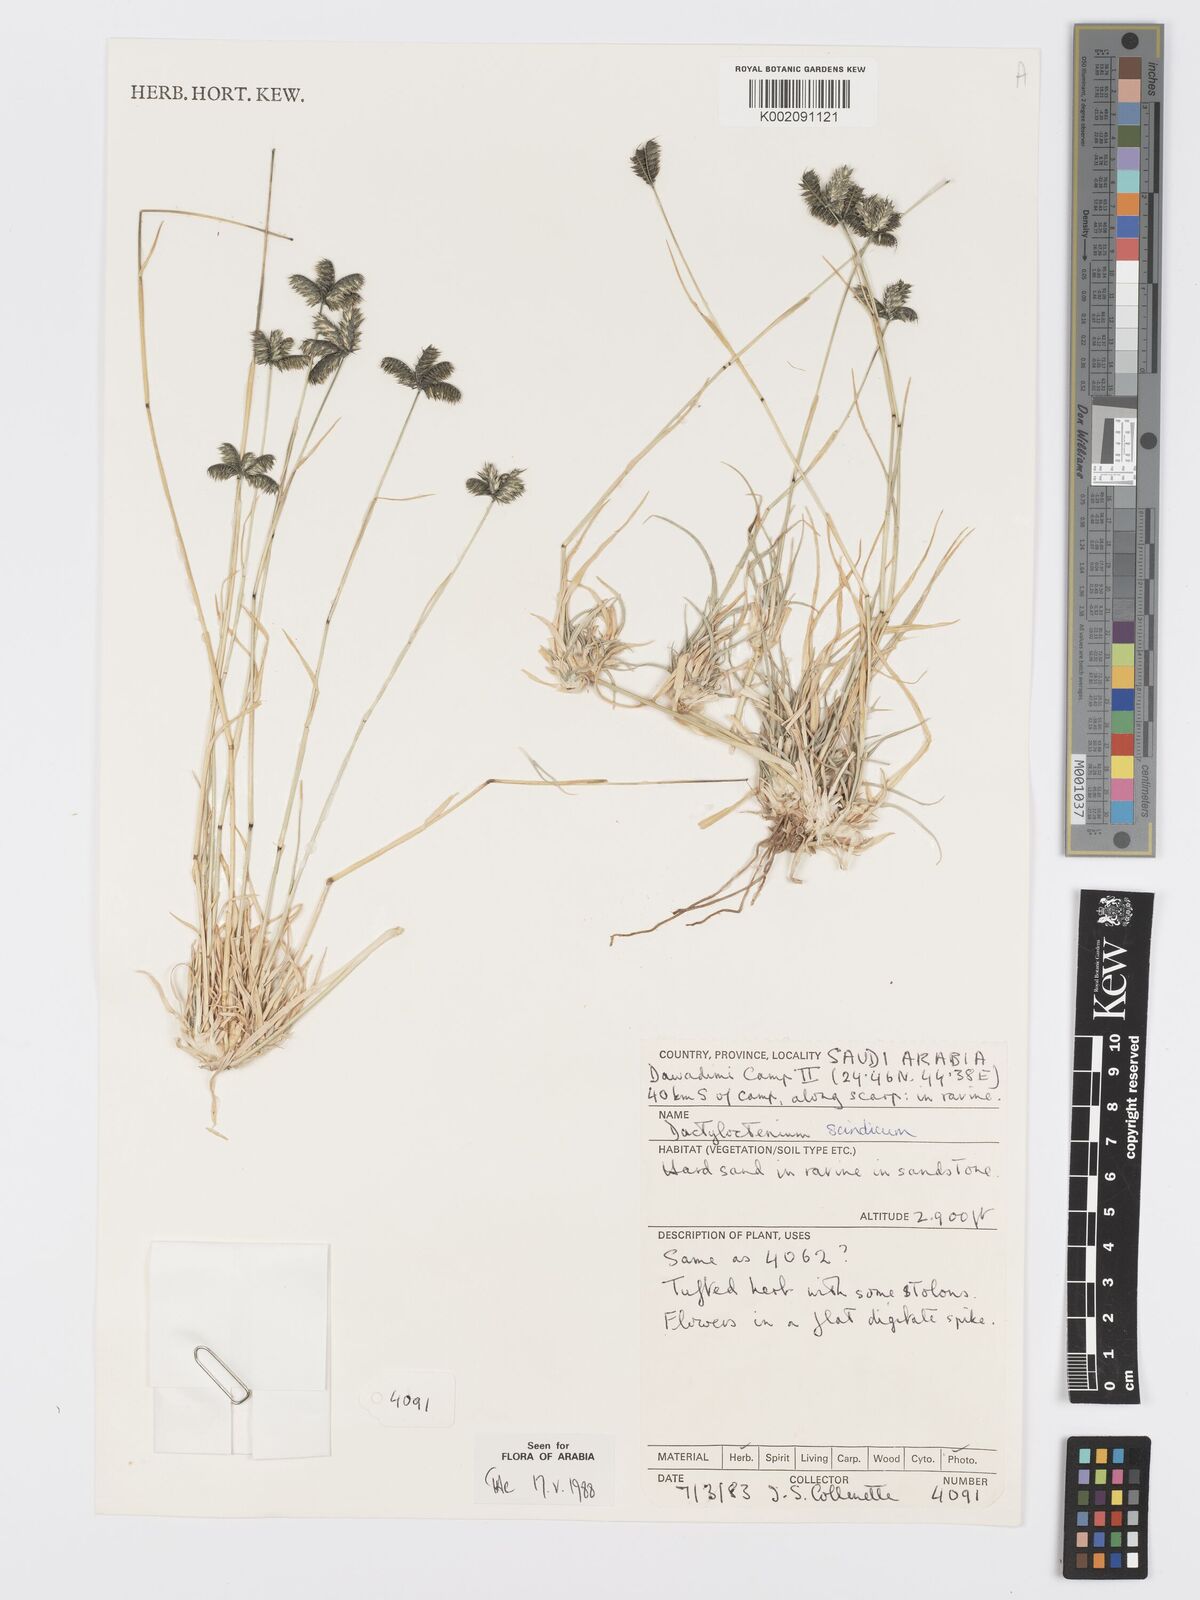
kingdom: Plantae
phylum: Tracheophyta
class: Liliopsida
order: Poales
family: Poaceae
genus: Dactyloctenium
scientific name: Dactyloctenium scindicum
